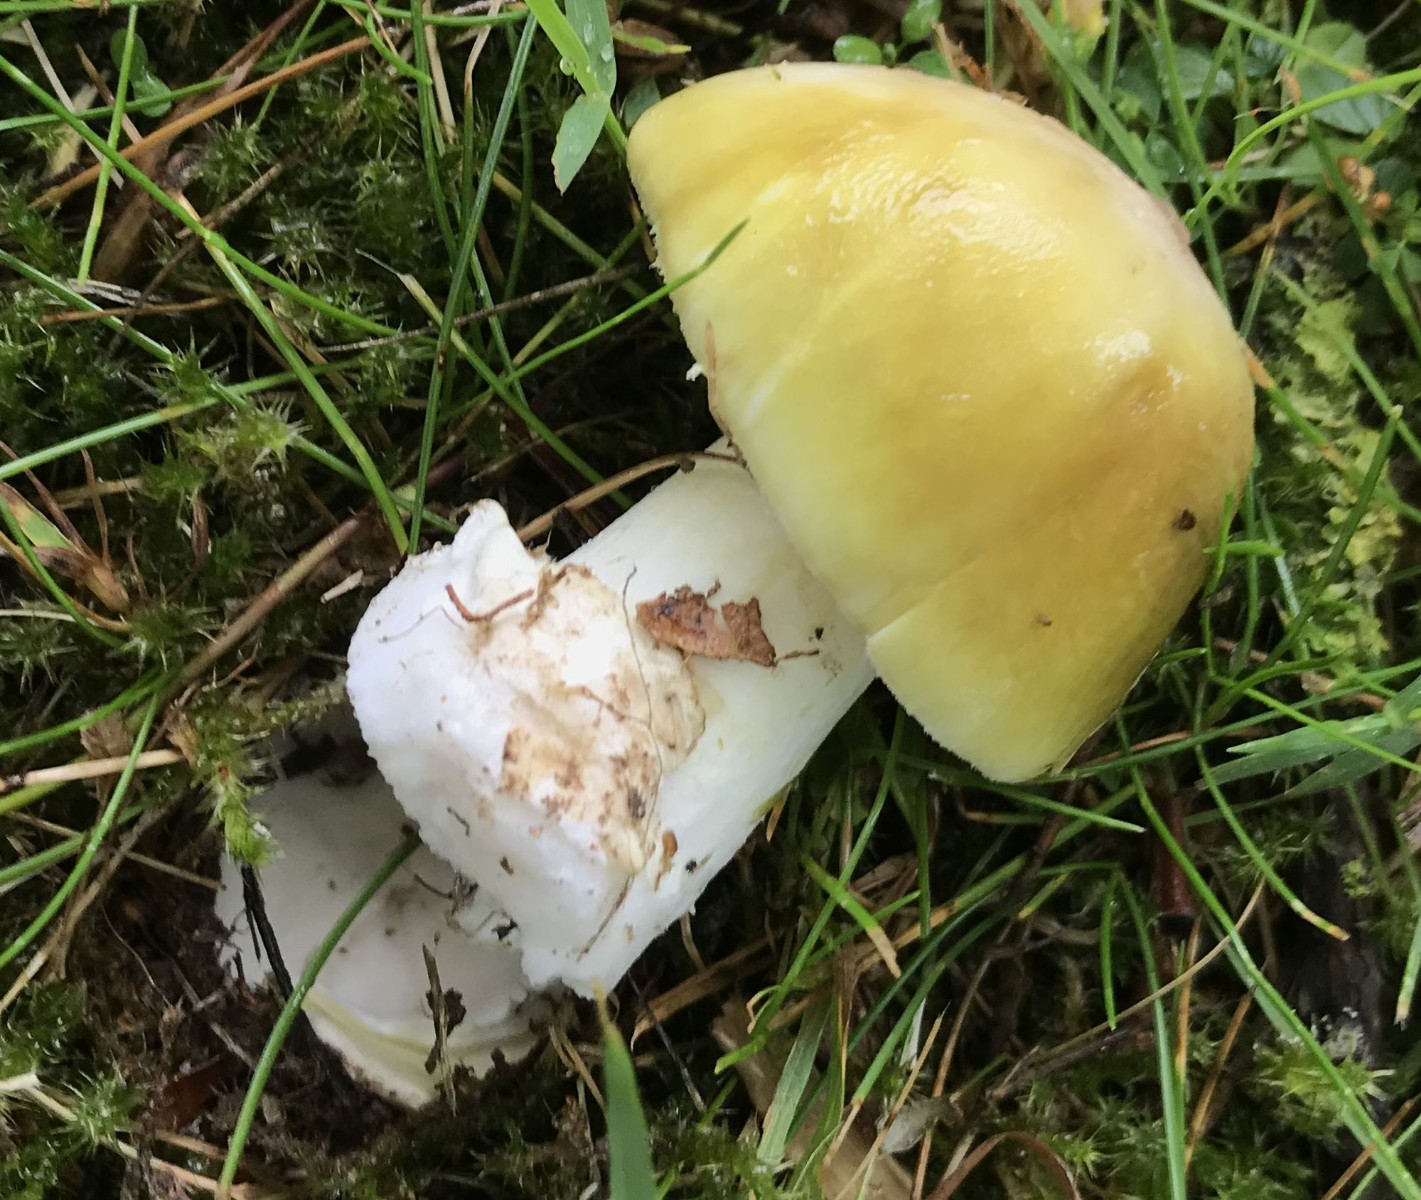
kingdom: Fungi
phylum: Basidiomycota
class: Agaricomycetes
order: Agaricales
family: Amanitaceae
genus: Amanita
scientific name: Amanita phalloides
